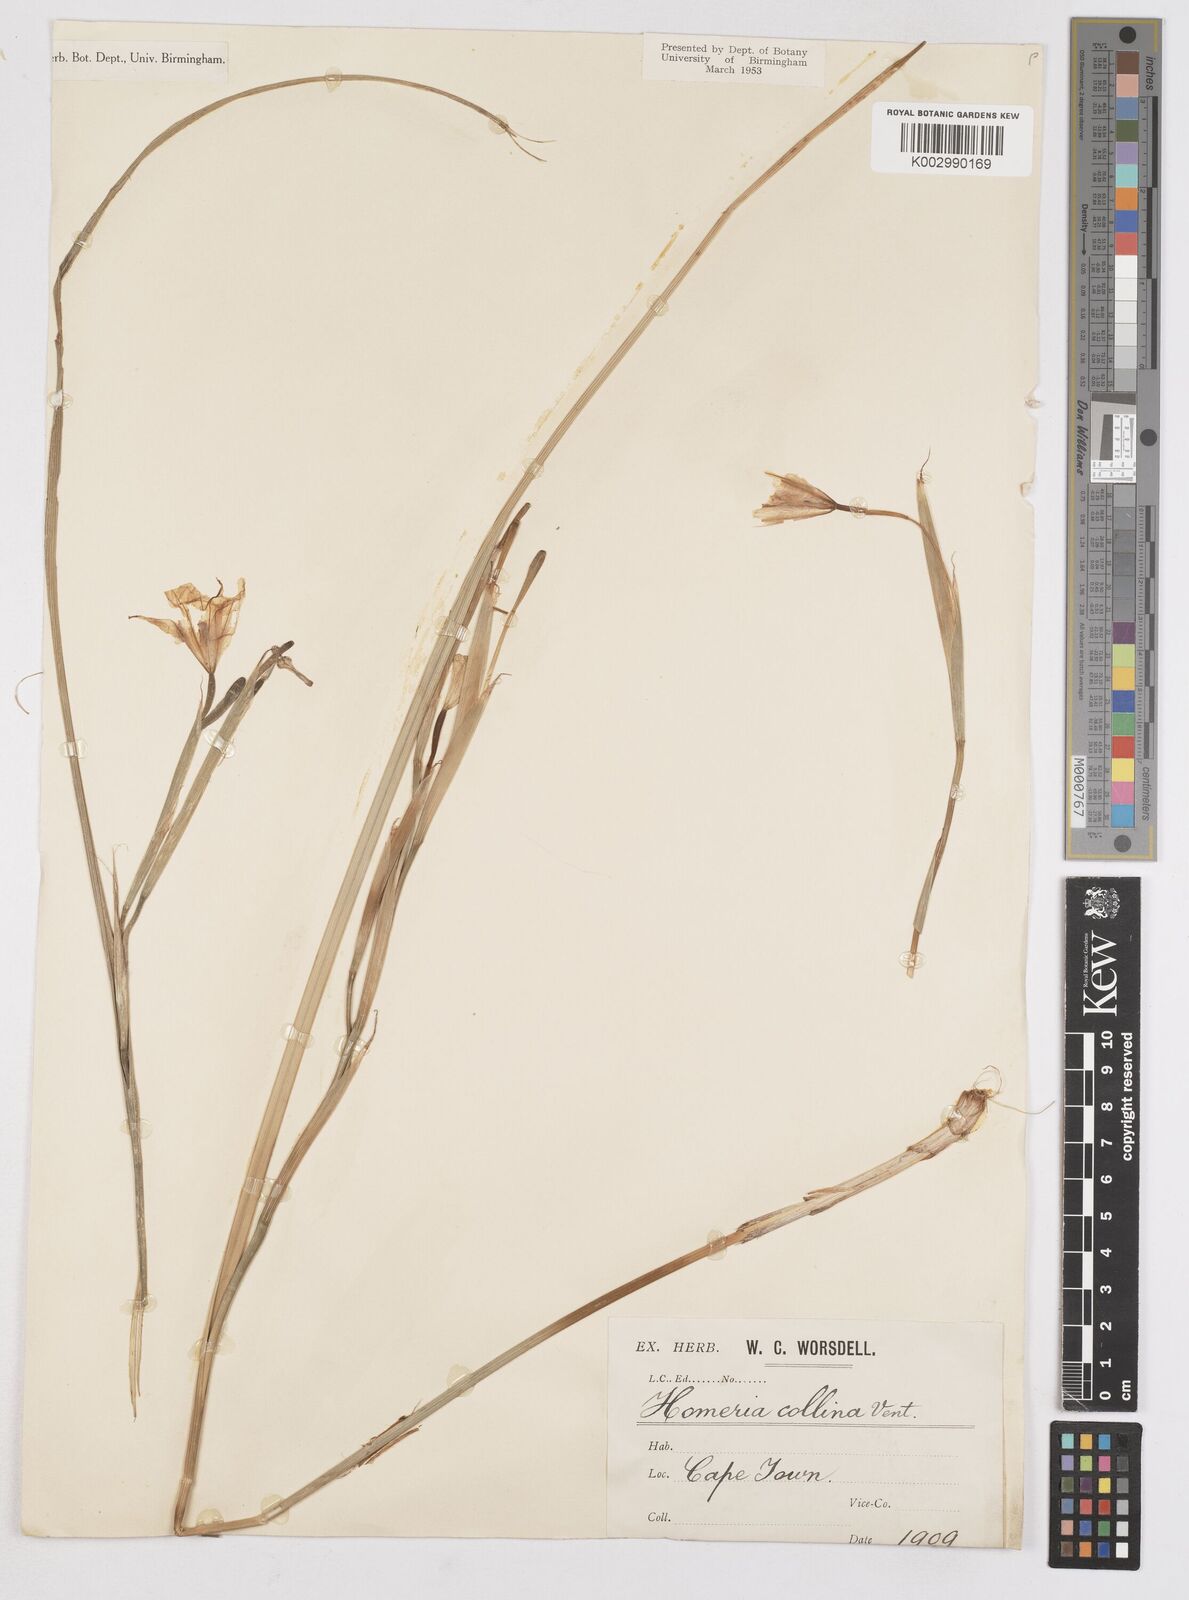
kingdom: Plantae
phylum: Tracheophyta
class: Liliopsida
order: Asparagales
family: Iridaceae
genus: Moraea
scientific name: Moraea collina
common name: Cape-tulip
